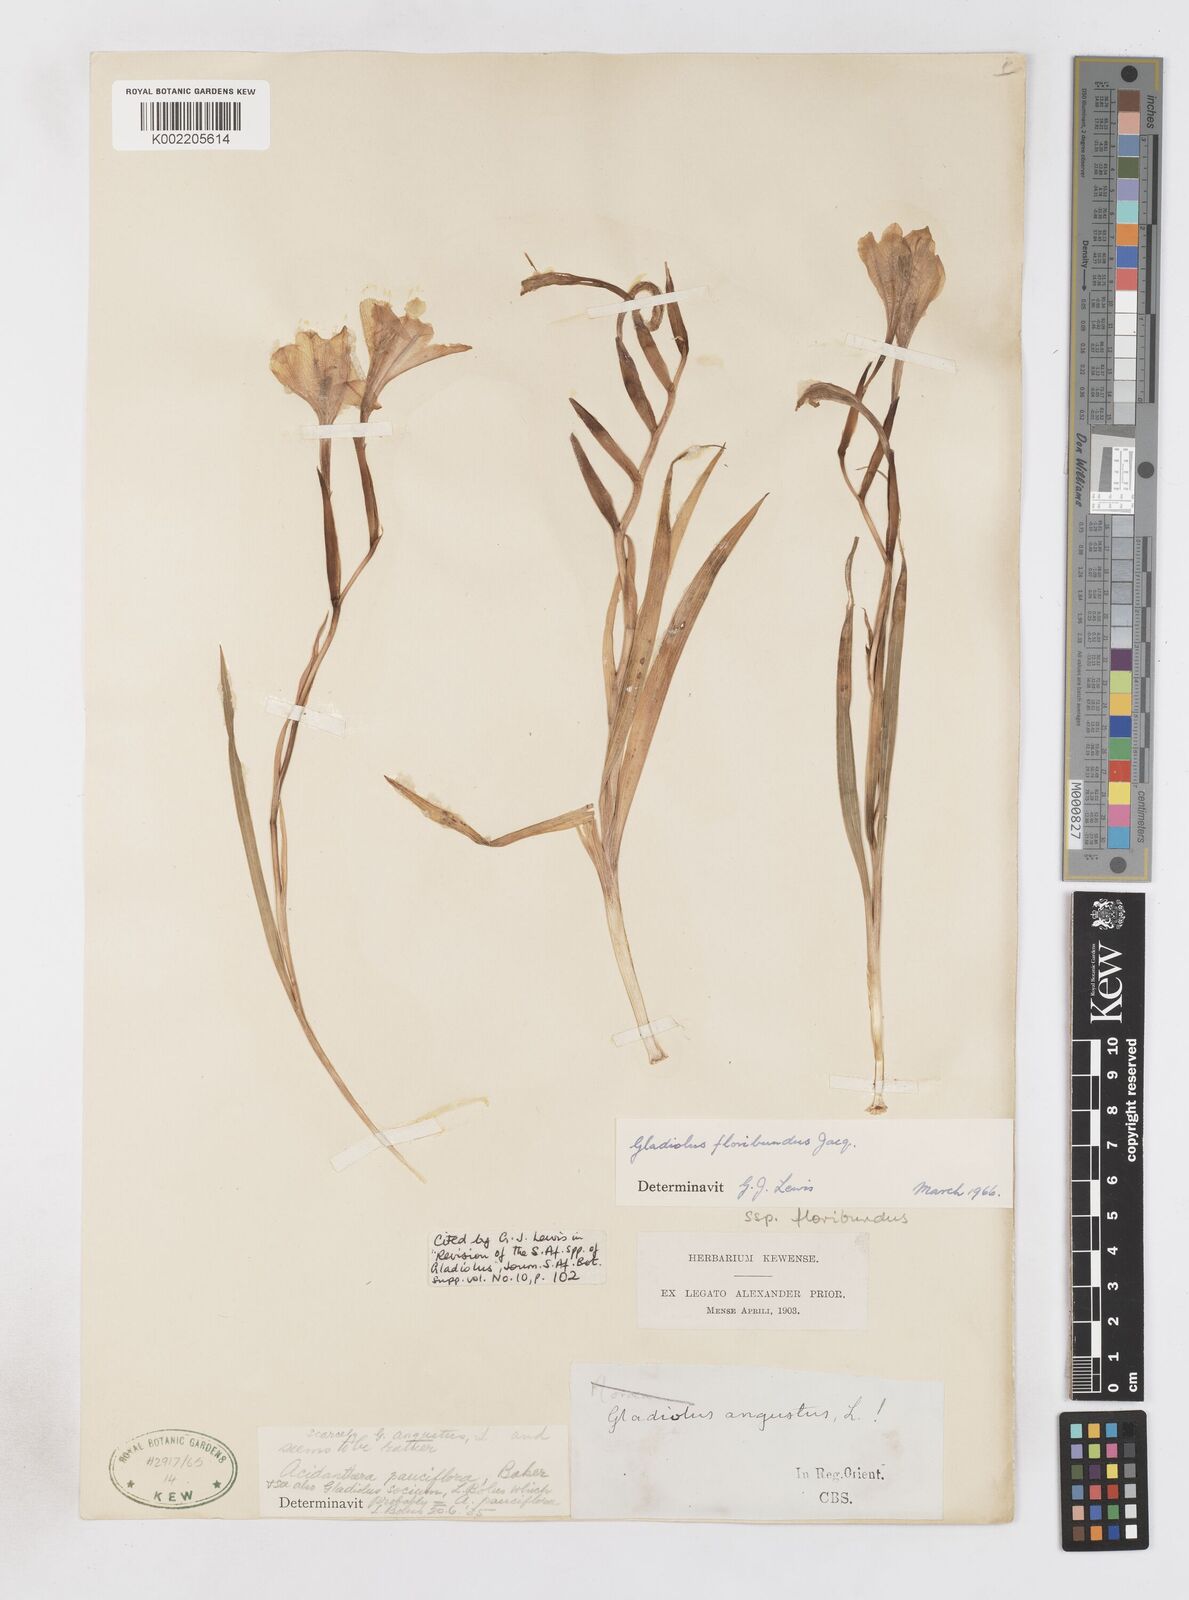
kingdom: Plantae
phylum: Tracheophyta
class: Liliopsida
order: Asparagales
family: Iridaceae
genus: Gladiolus
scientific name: Gladiolus floribundus
